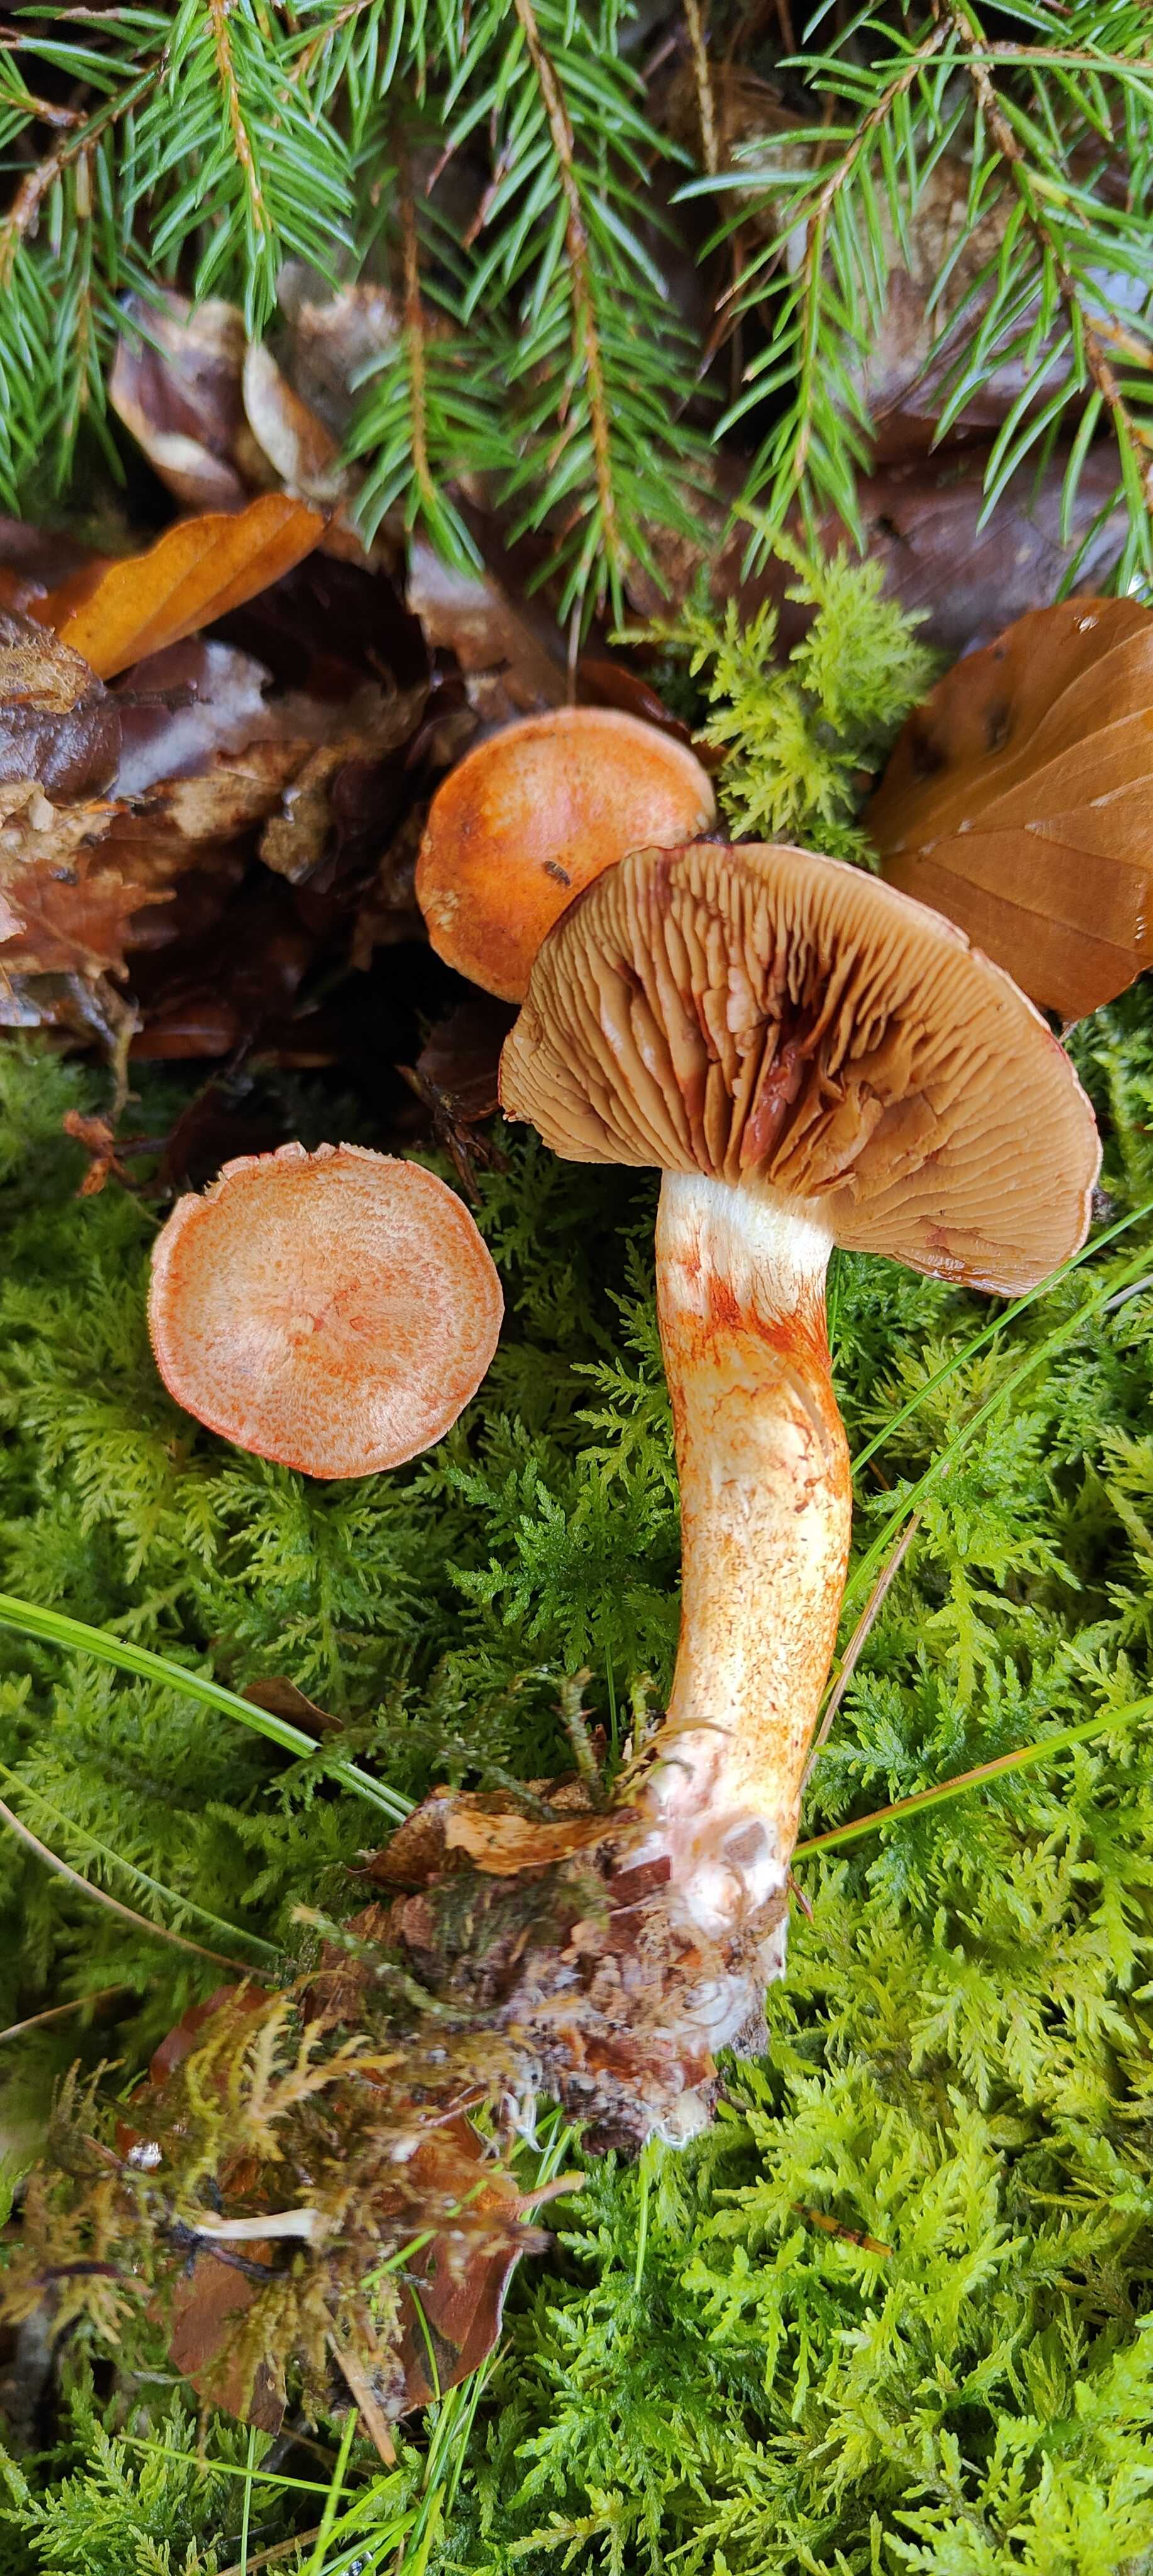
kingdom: Fungi
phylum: Basidiomycota
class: Agaricomycetes
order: Agaricales
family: Cortinariaceae
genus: Cortinarius
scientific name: Cortinarius bolaris
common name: cinnoberskællet slørhat
